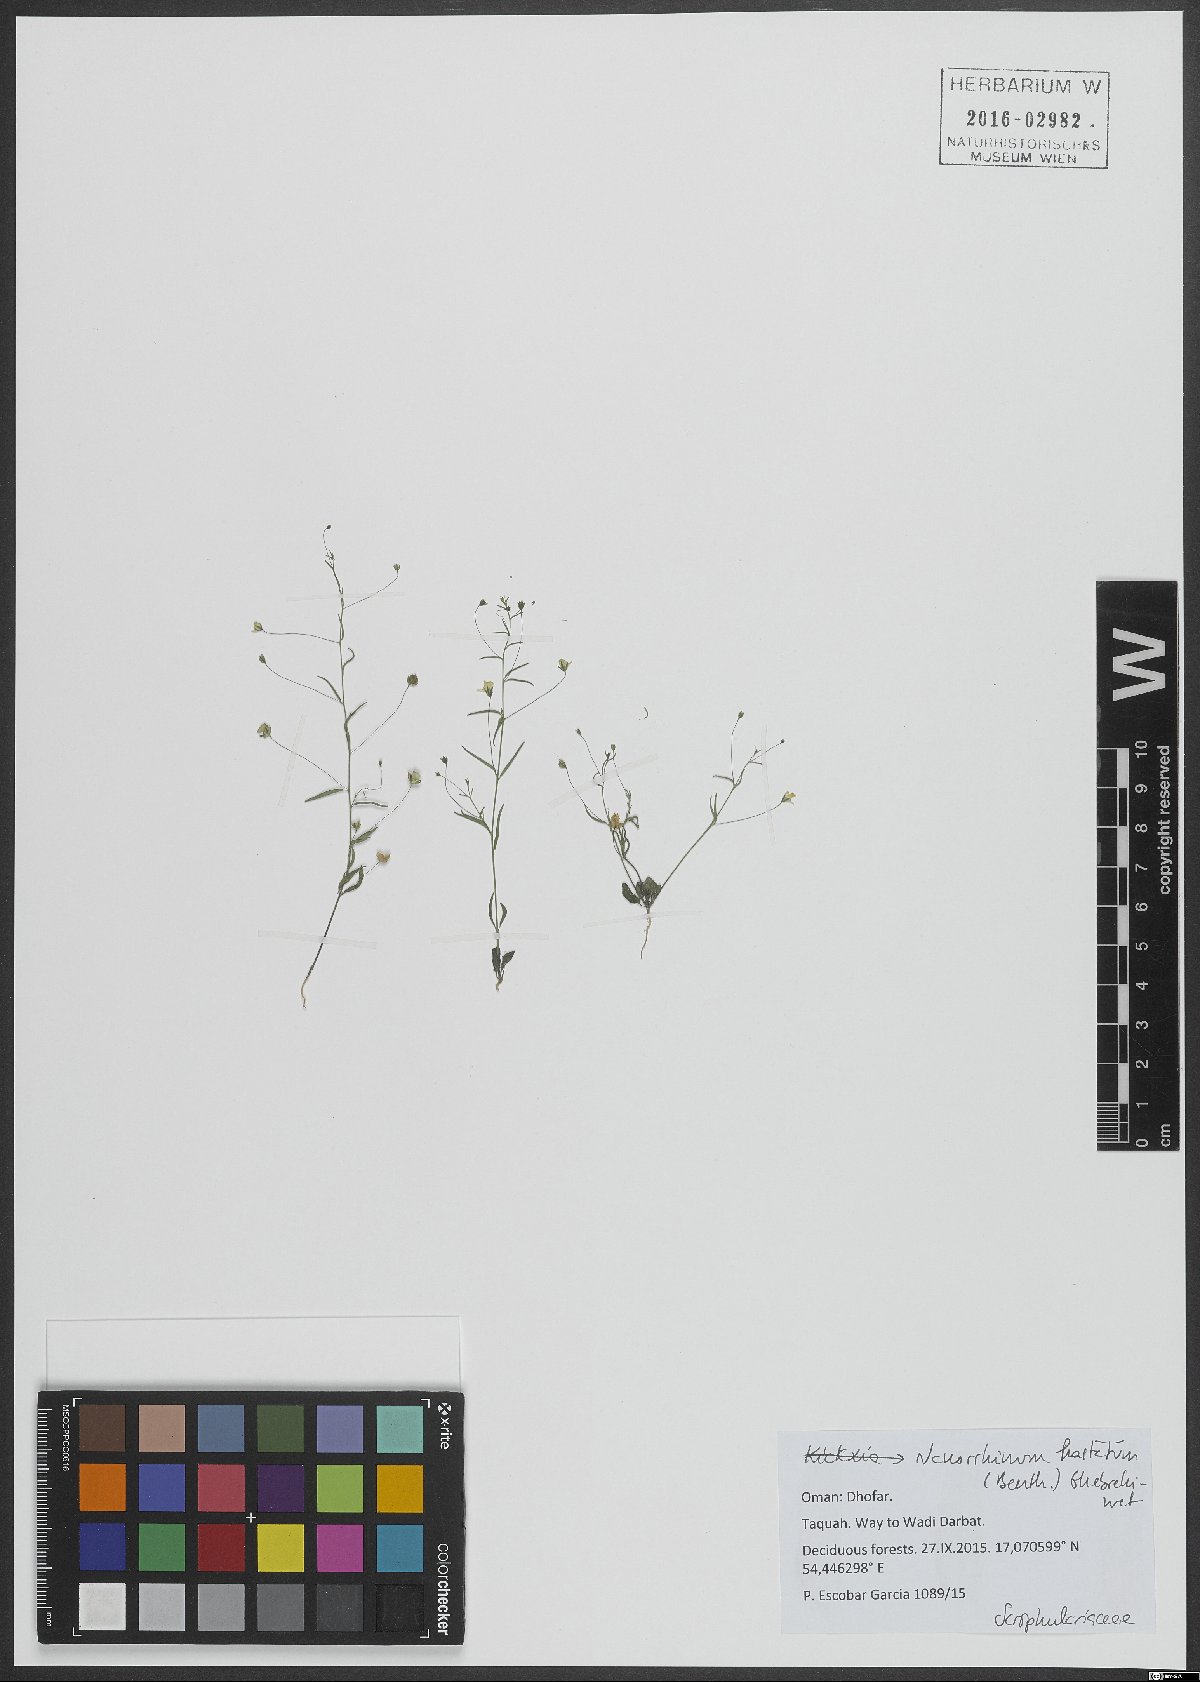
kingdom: Plantae
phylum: Tracheophyta
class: Magnoliopsida
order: Lamiales
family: Plantaginaceae
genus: Nanorrhinum
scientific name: Nanorrhinum hastatum
